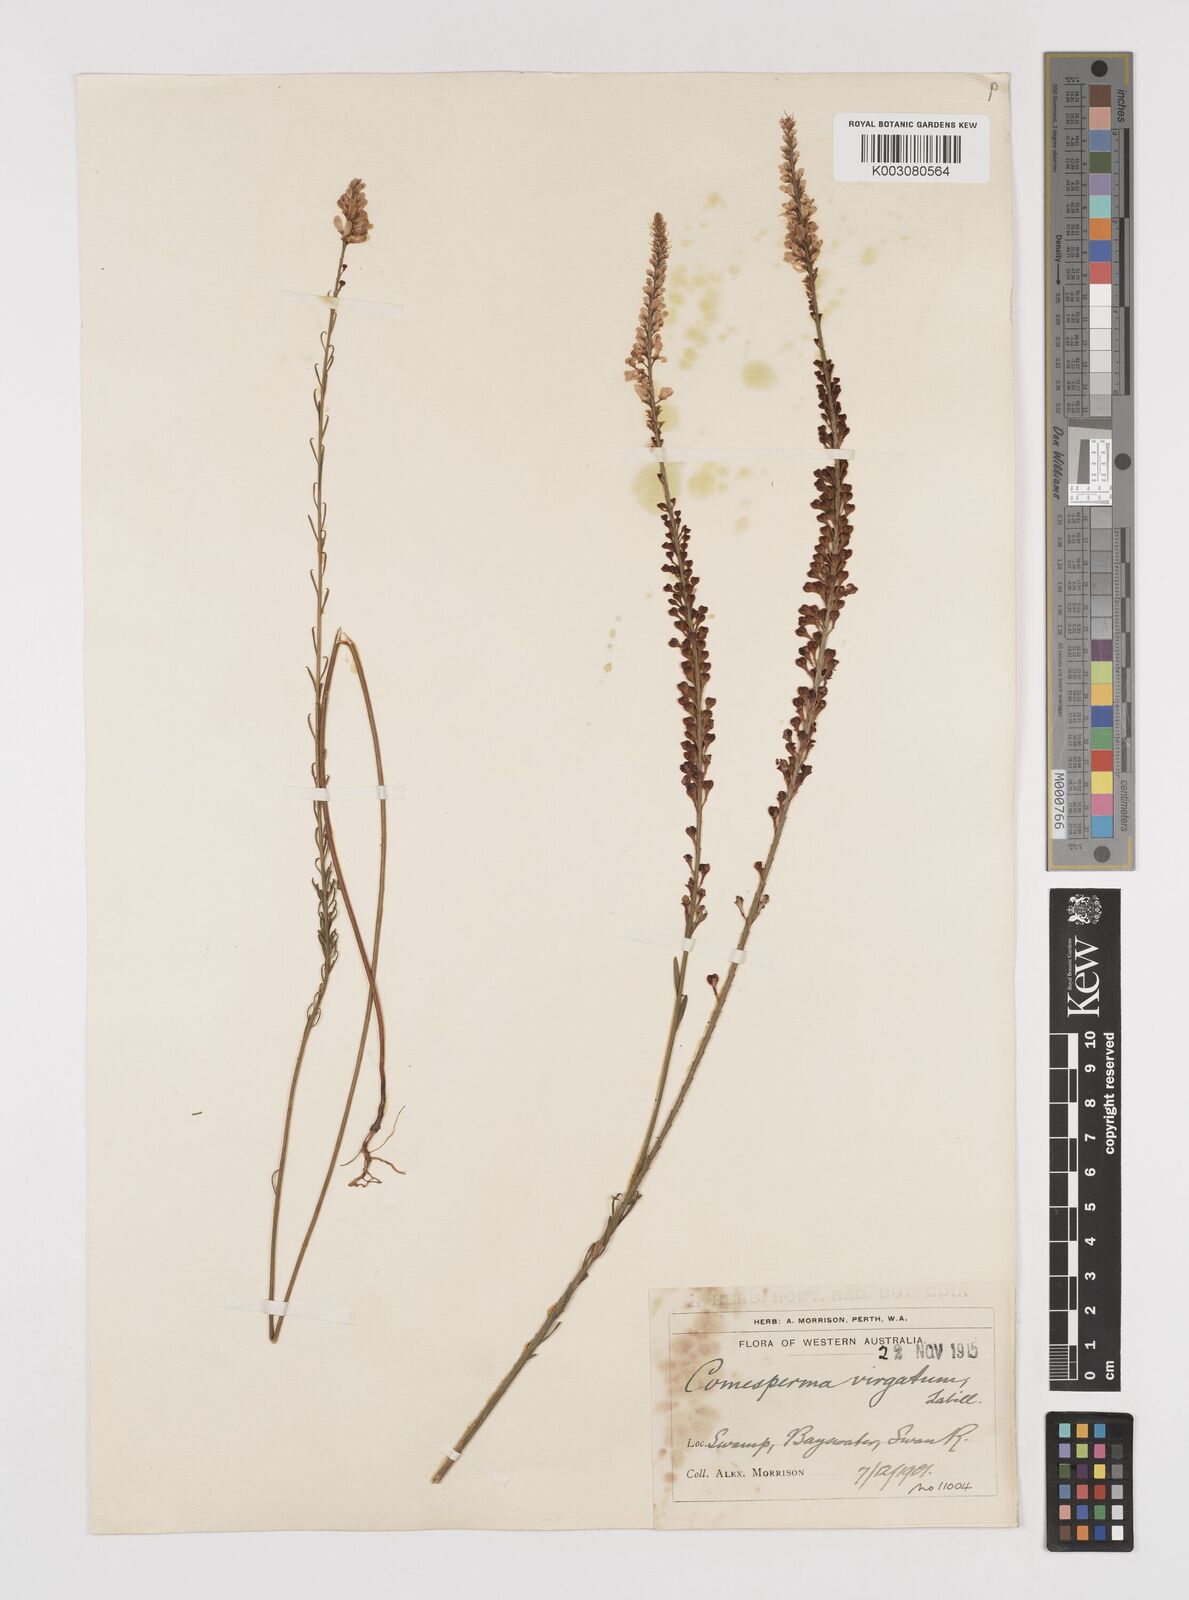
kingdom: Plantae
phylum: Tracheophyta
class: Magnoliopsida
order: Fabales
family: Polygalaceae
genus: Comesperma
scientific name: Comesperma virgatum
